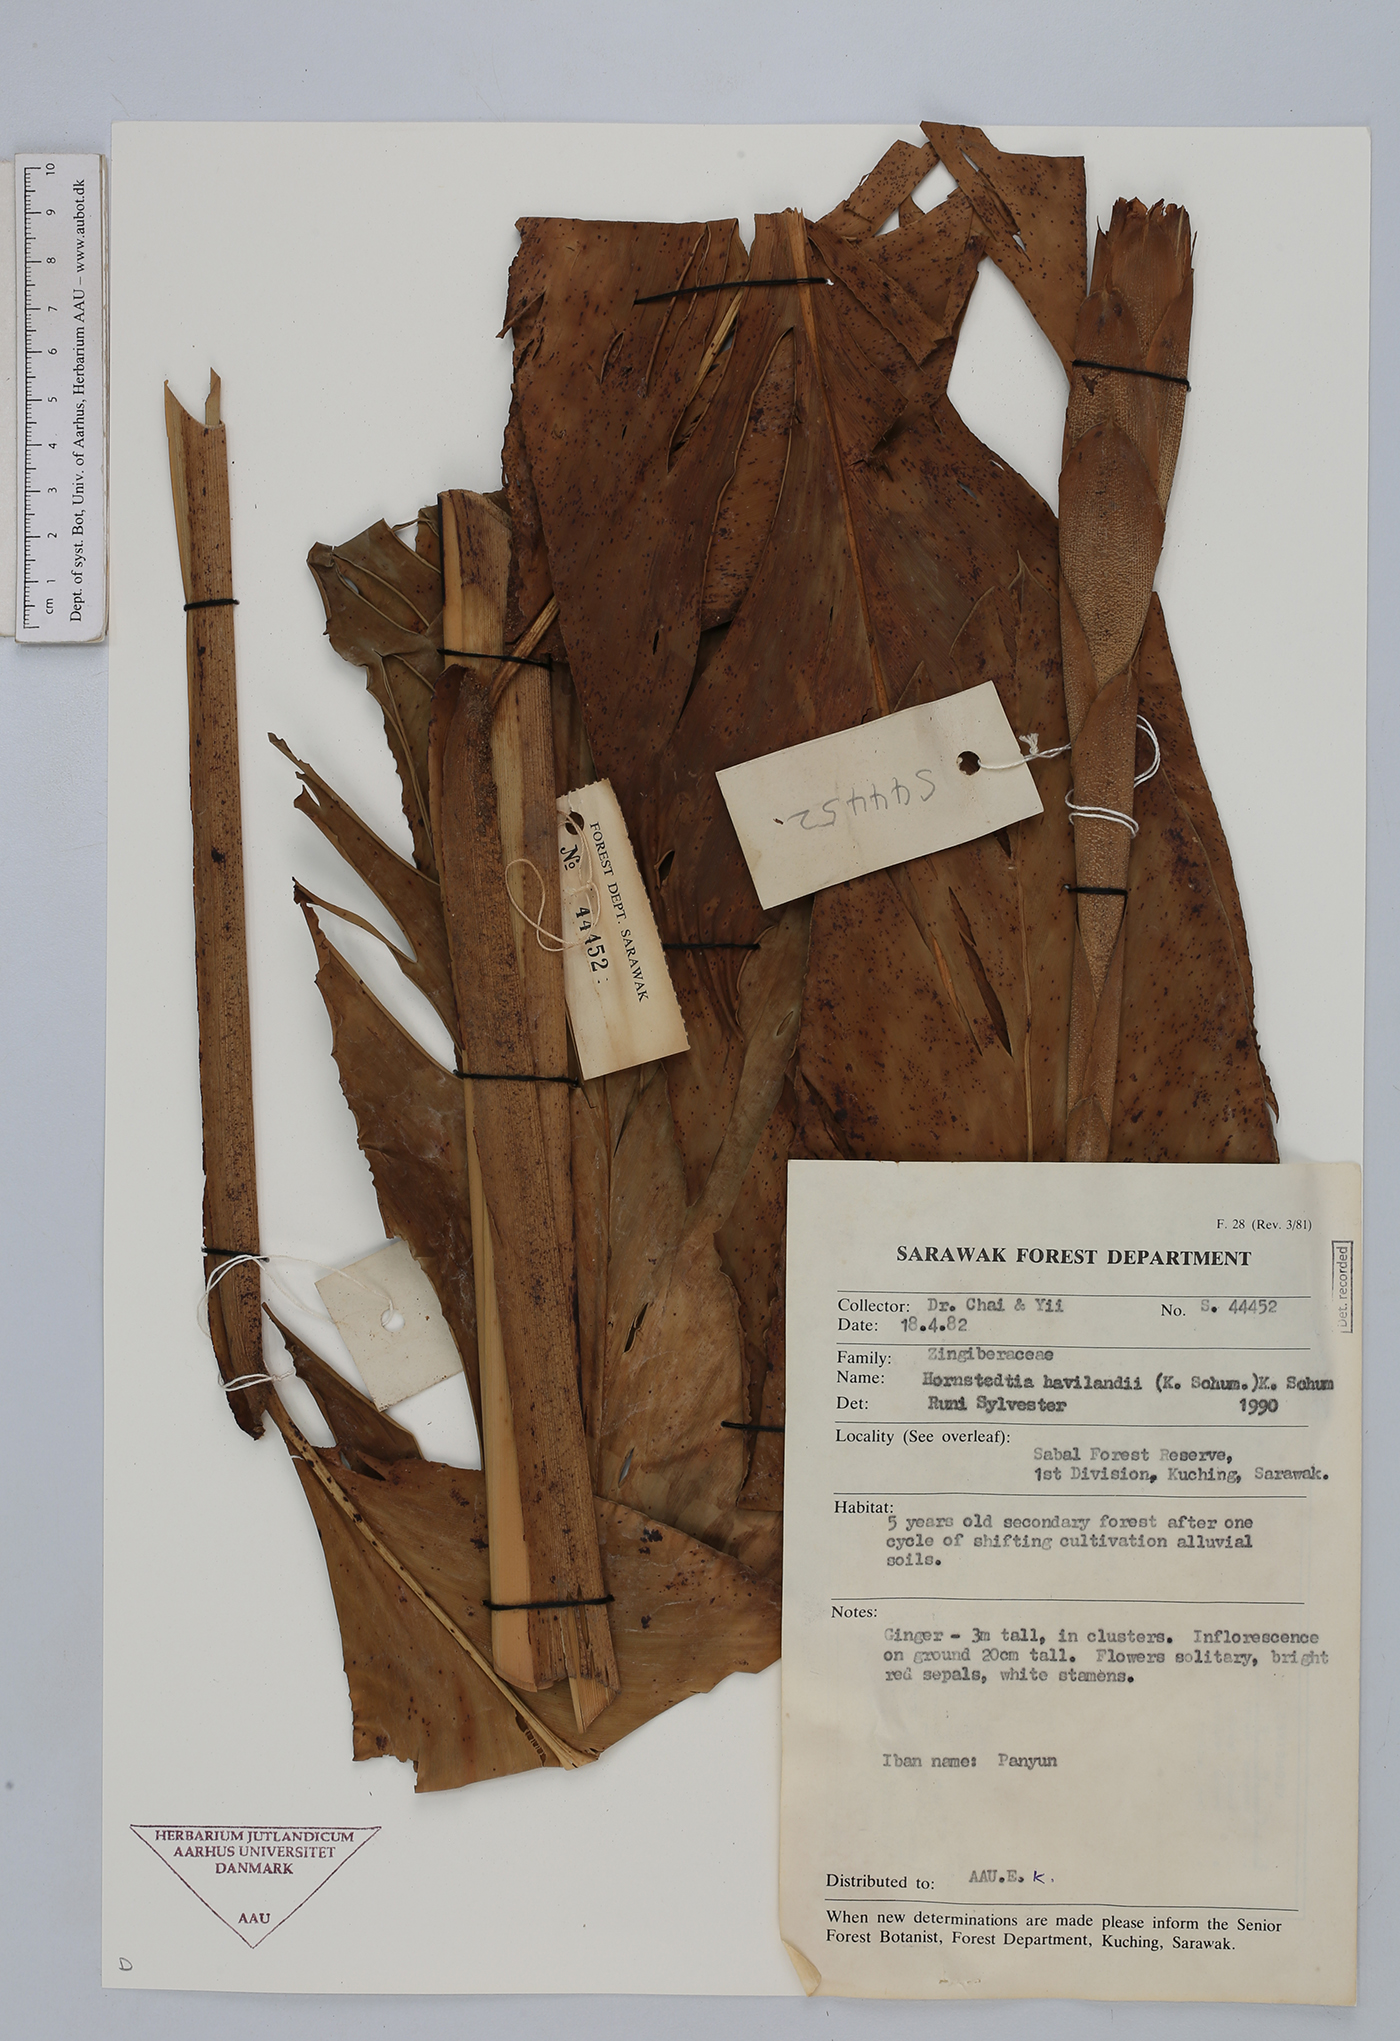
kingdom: Plantae
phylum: Tracheophyta
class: Liliopsida
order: Zingiberales
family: Zingiberaceae
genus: Hornstedtia
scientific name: Hornstedtia havilandii
